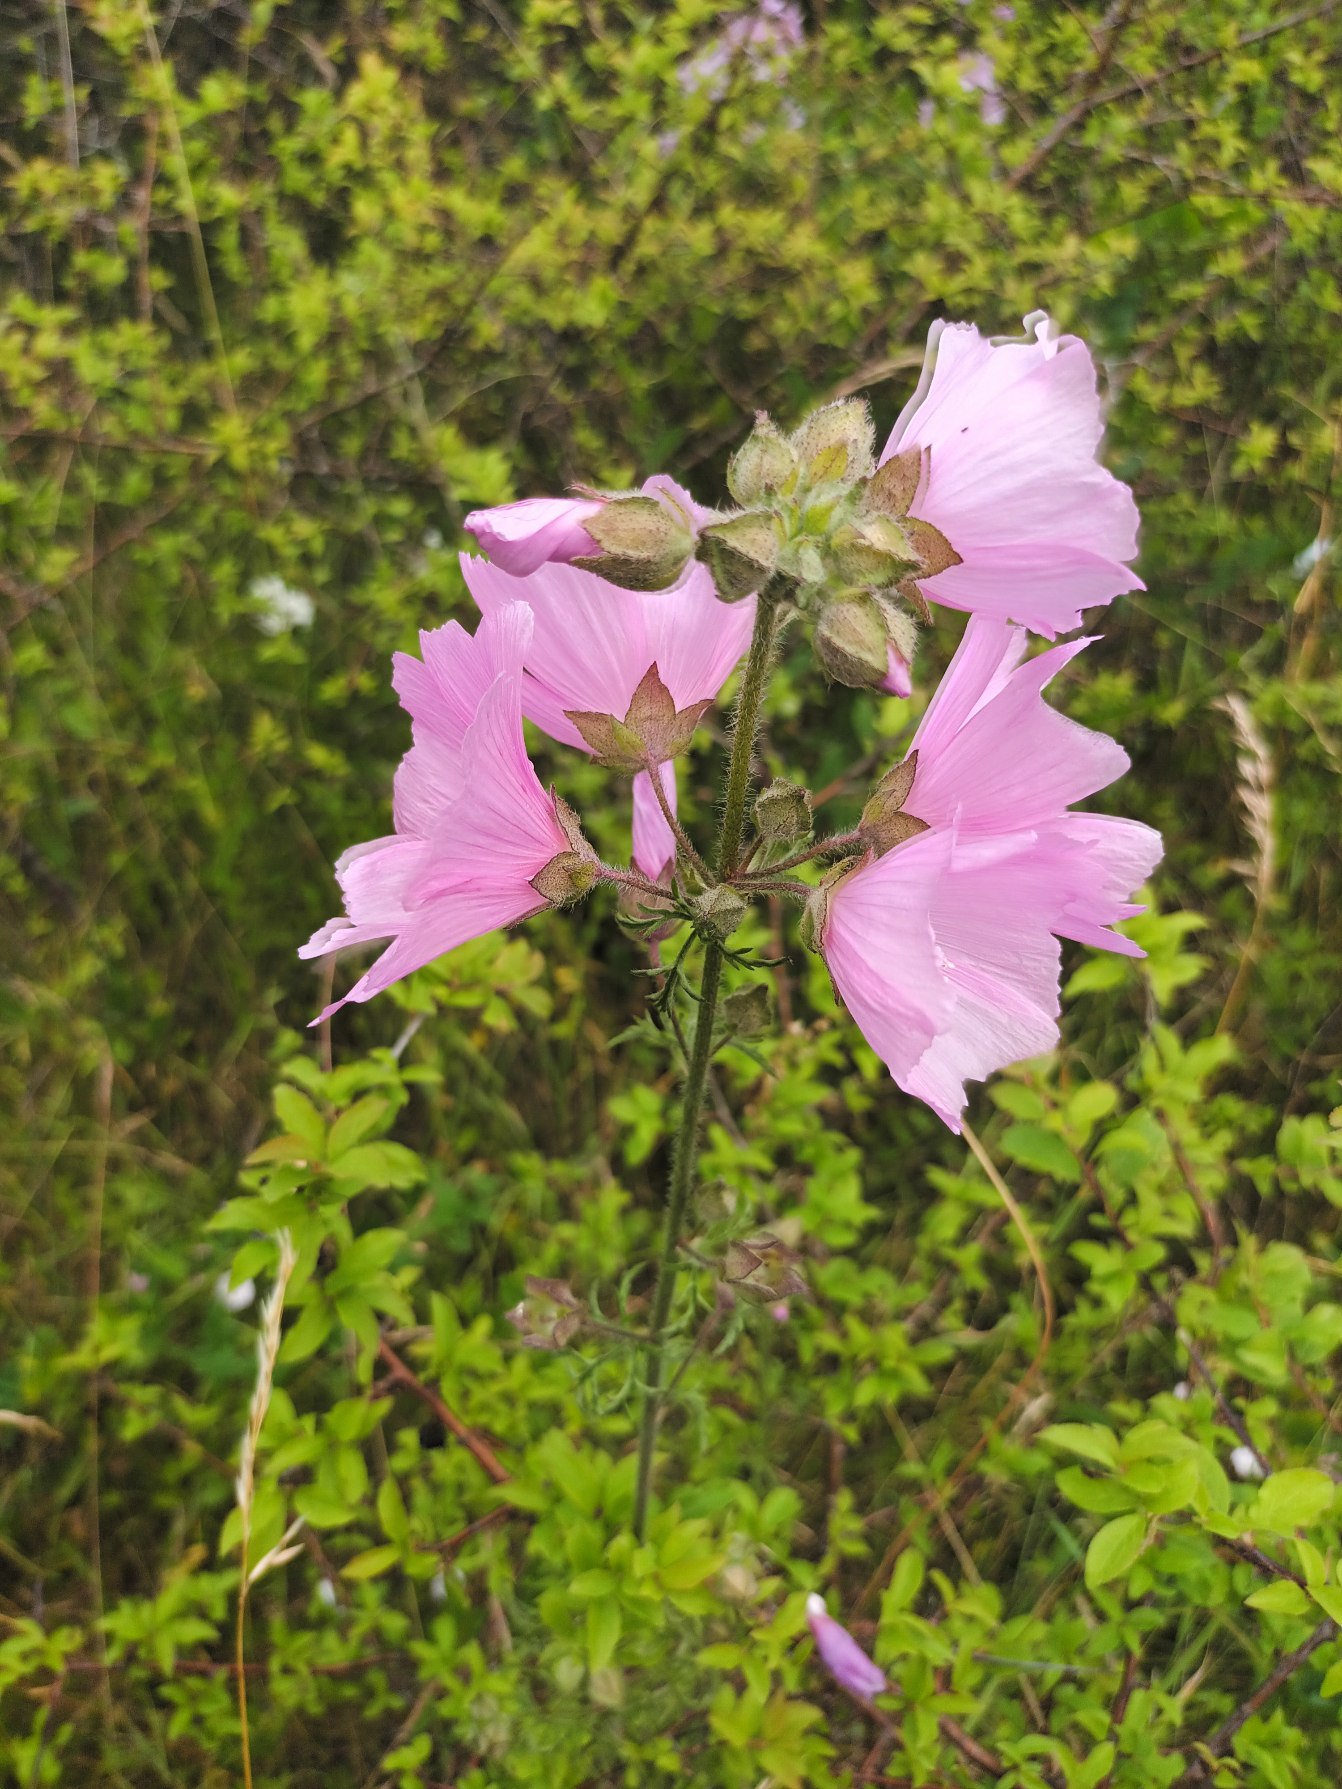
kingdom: Plantae
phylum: Tracheophyta
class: Magnoliopsida
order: Malvales
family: Malvaceae
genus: Malva
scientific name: Malva
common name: Rosen-katost × moskus-katost
